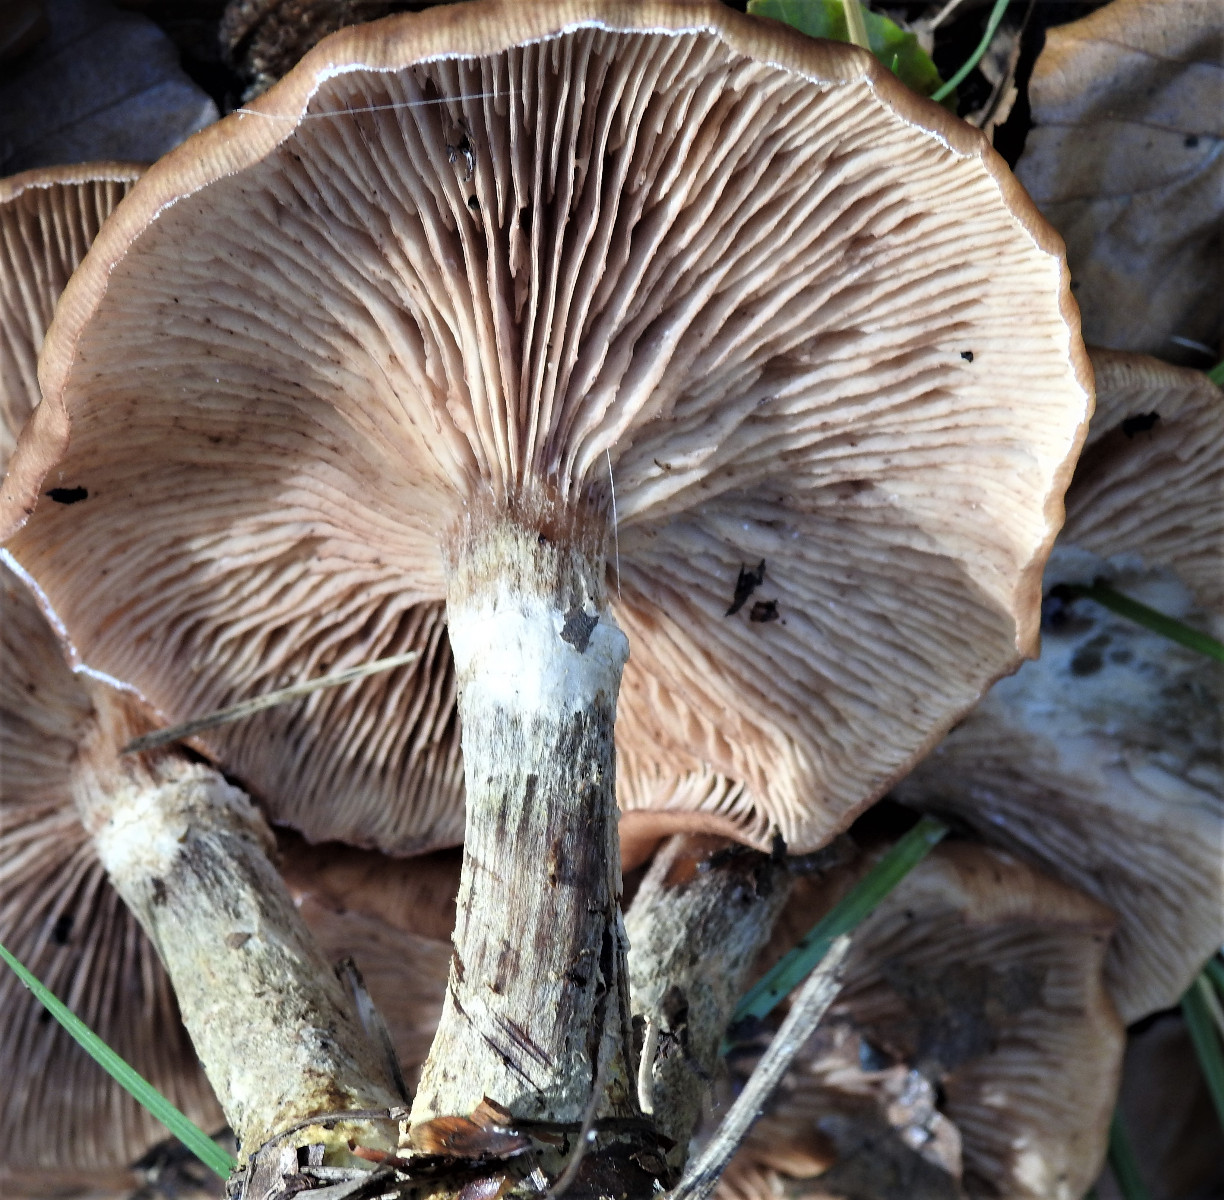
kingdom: Fungi
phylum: Basidiomycota
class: Agaricomycetes
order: Agaricales
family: Physalacriaceae
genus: Armillaria
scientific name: Armillaria
